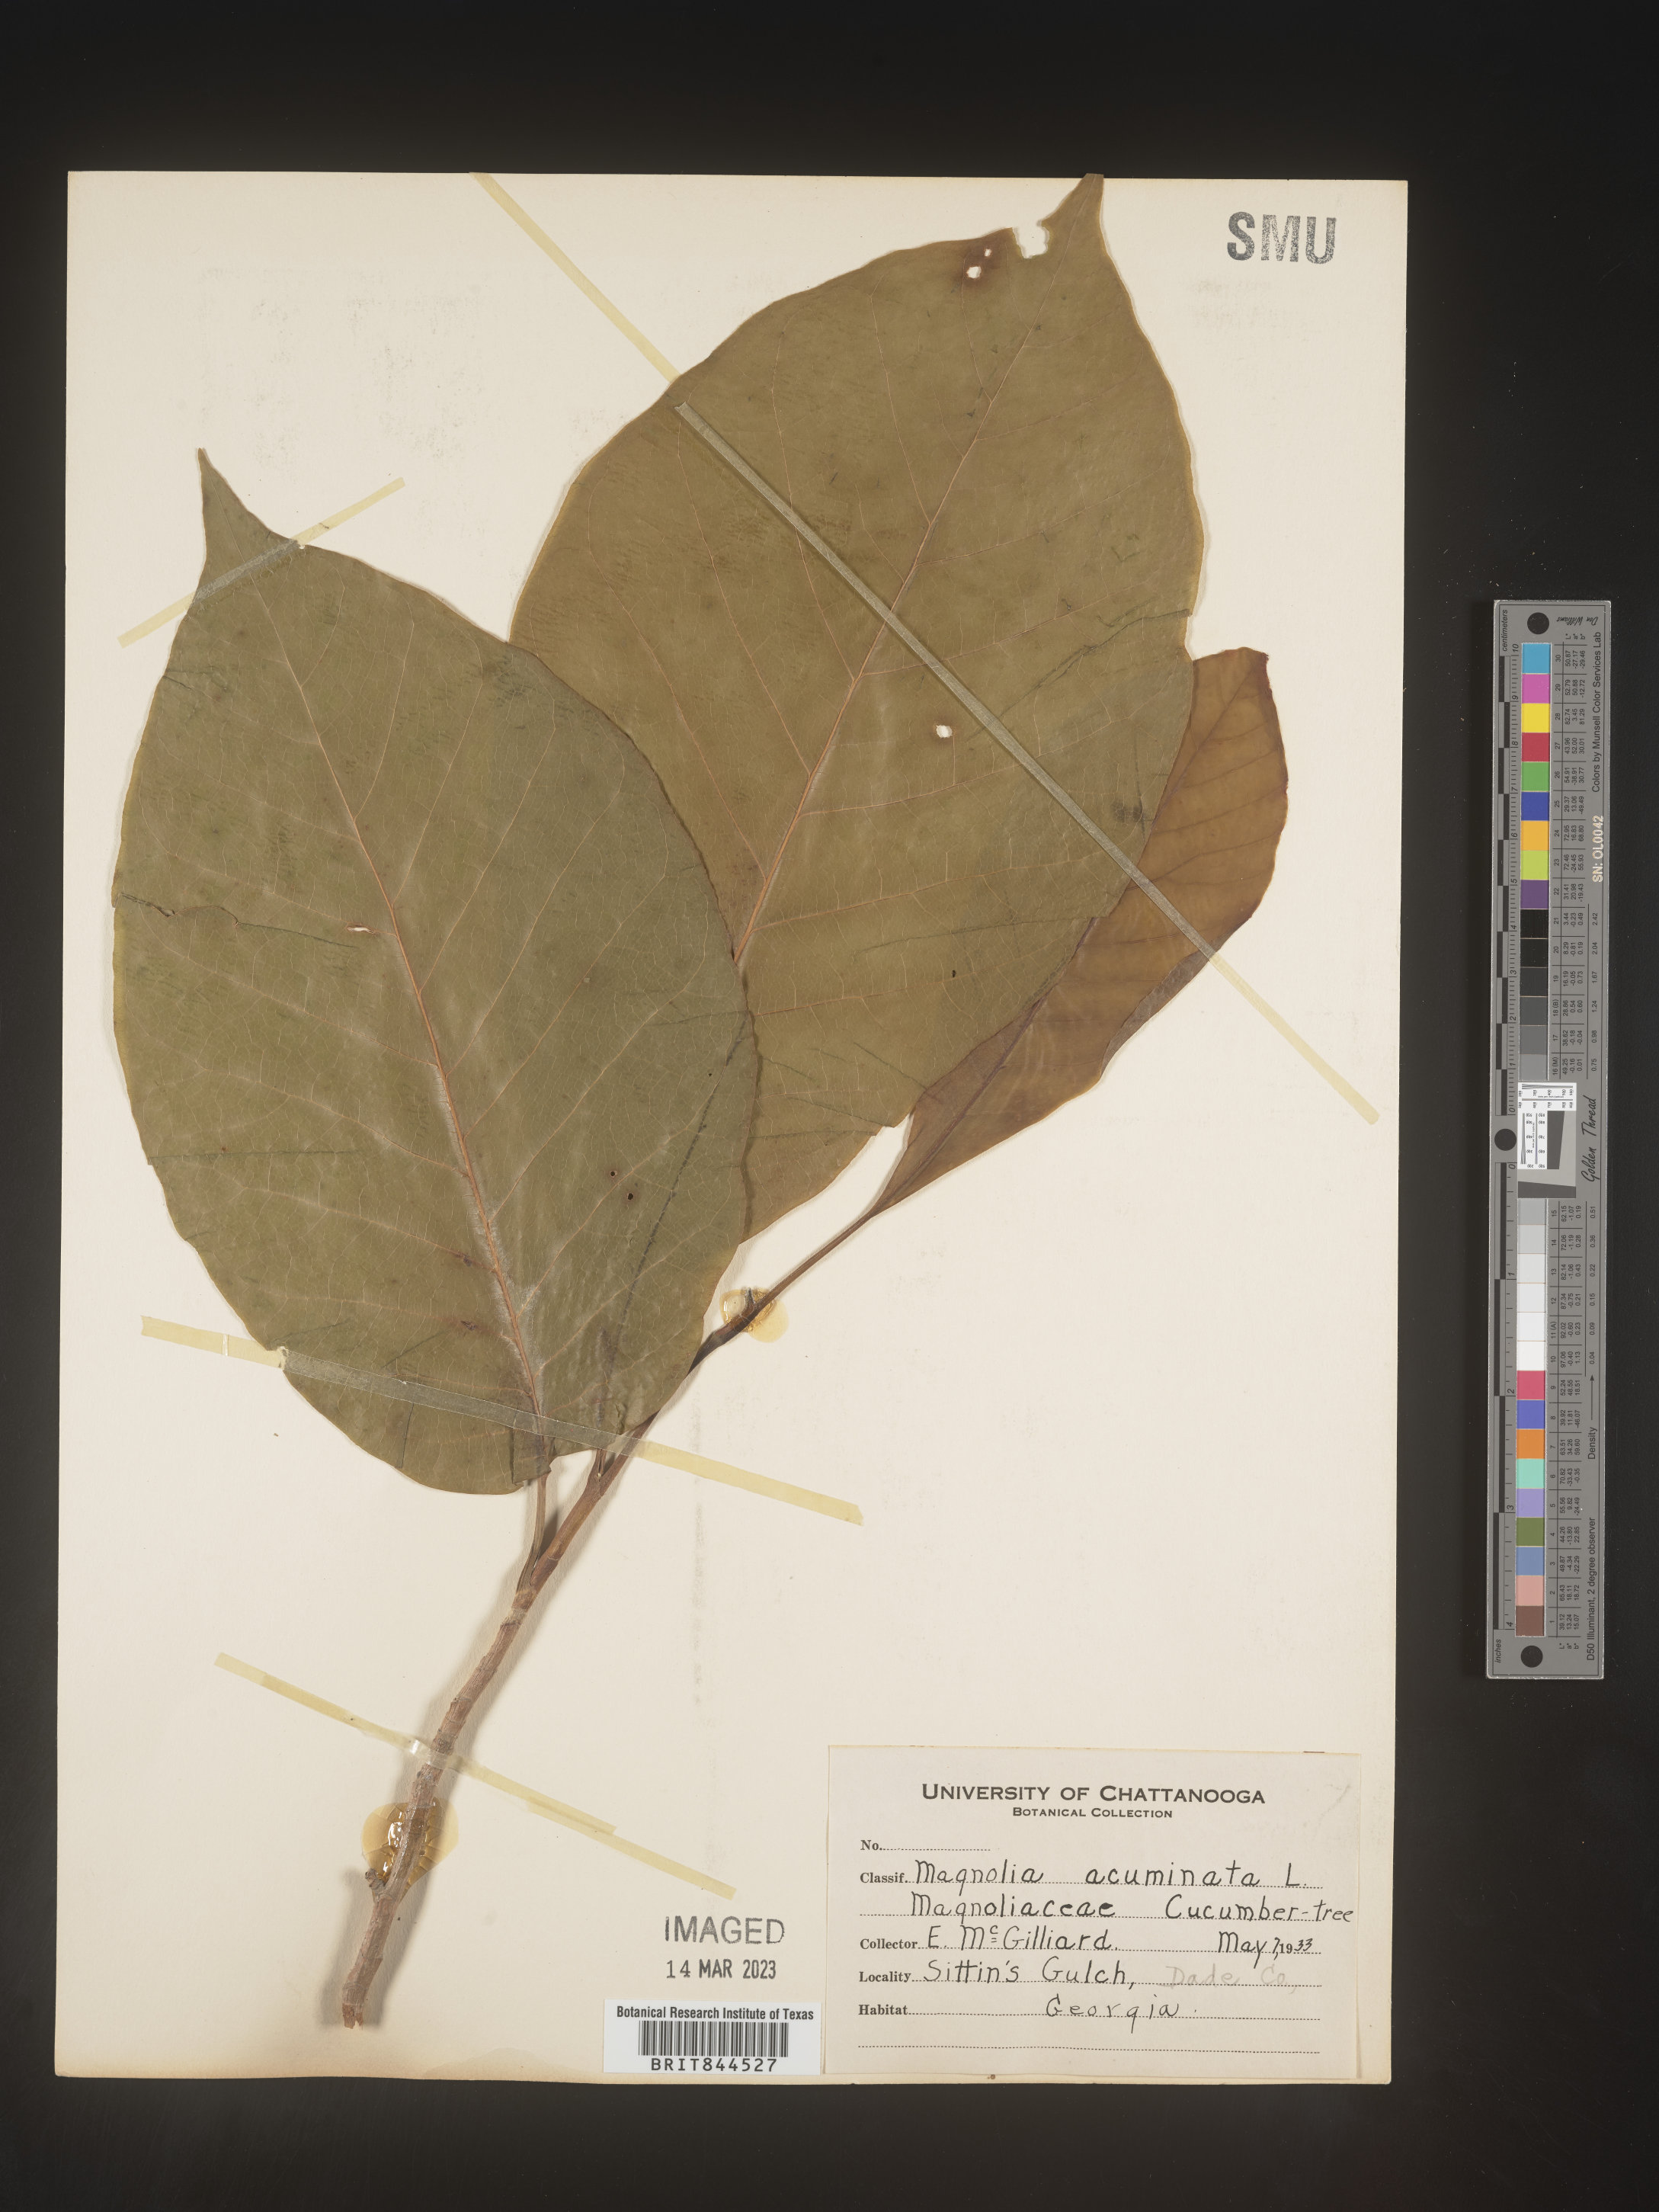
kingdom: Plantae
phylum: Tracheophyta
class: Magnoliopsida
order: Magnoliales
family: Magnoliaceae
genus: Magnolia
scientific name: Magnolia acuminata
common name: Cucumber magnolia
